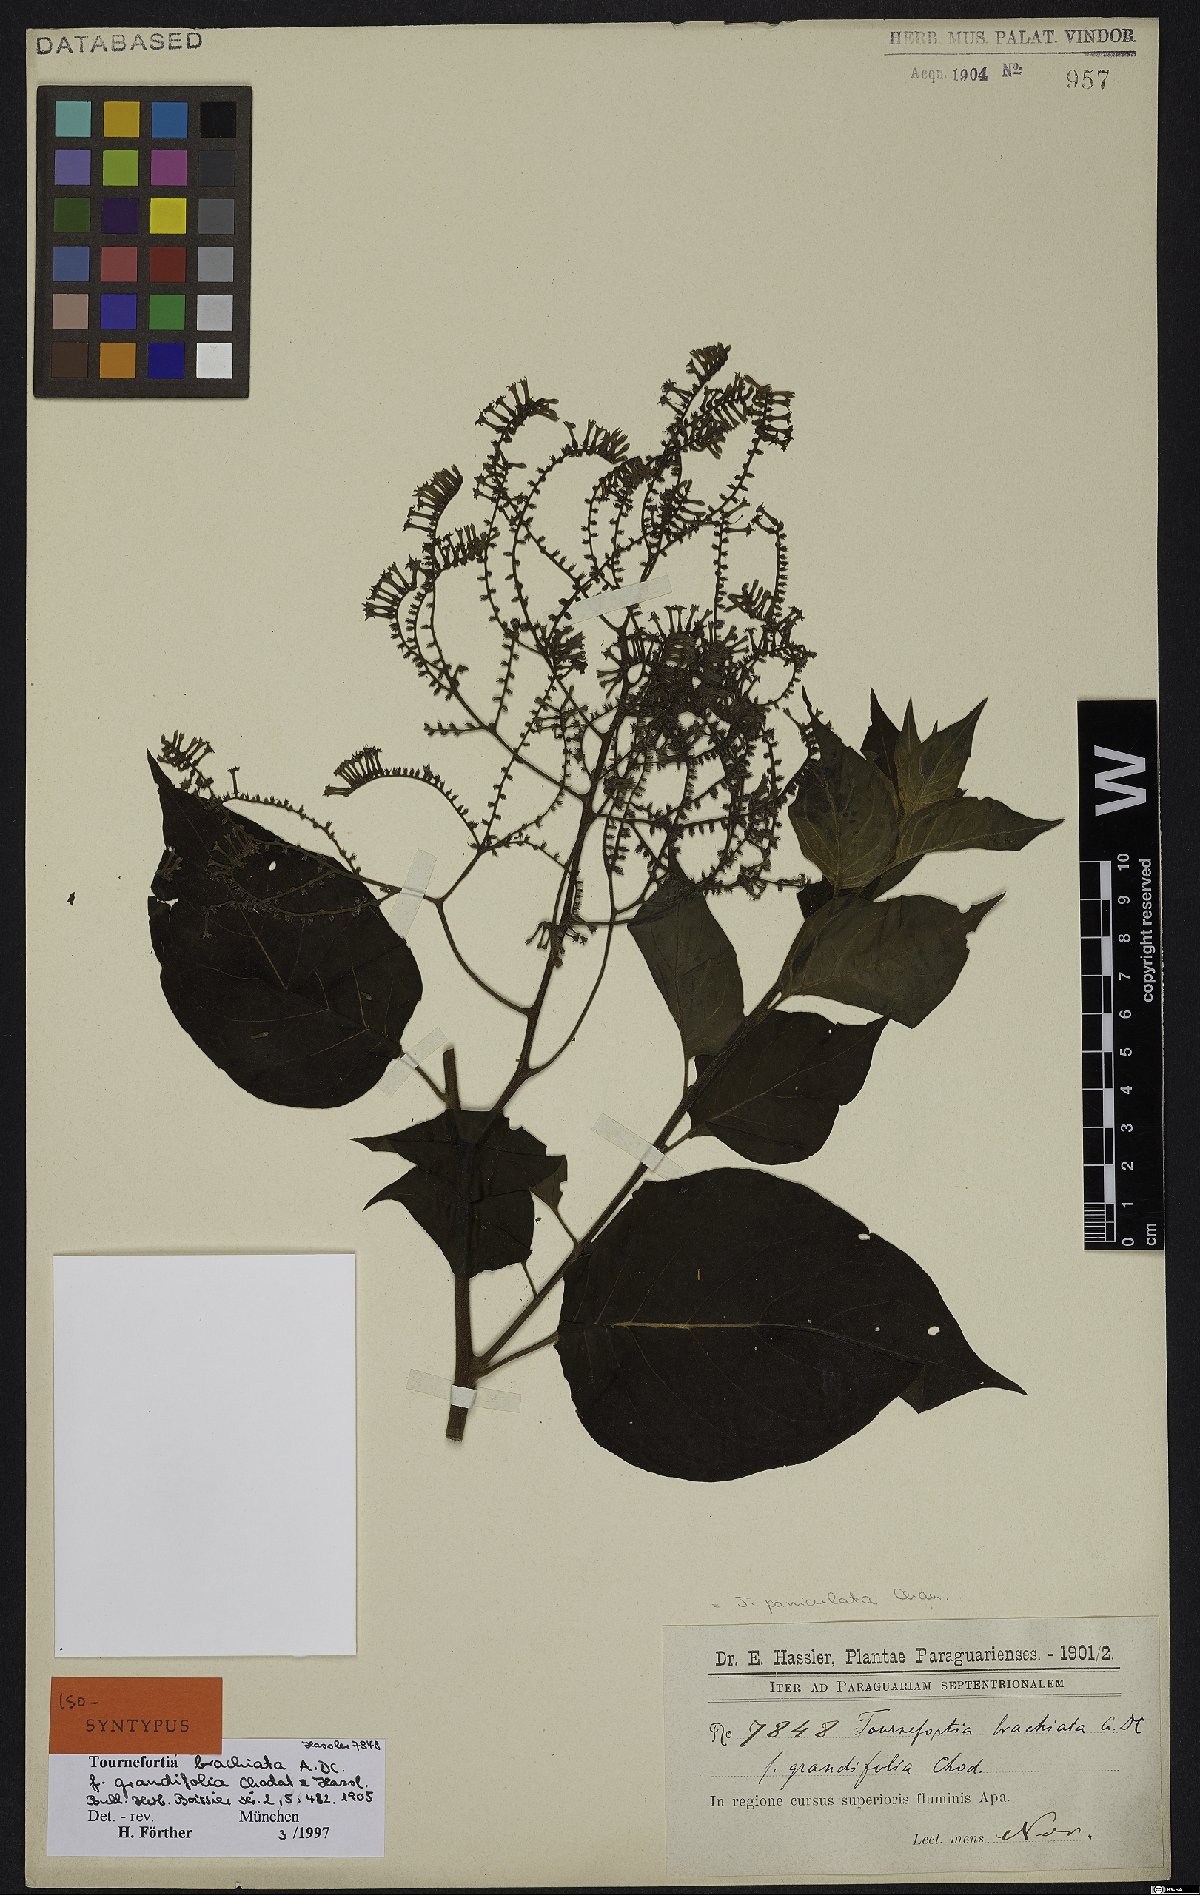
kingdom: Plantae
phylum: Tracheophyta
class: Magnoliopsida
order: Boraginales
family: Heliotropiaceae
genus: Myriopus
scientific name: Myriopus paniculatus
